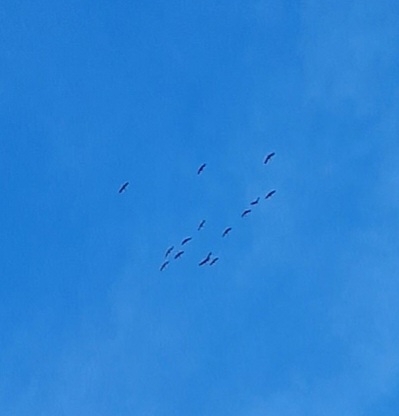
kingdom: Animalia
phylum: Chordata
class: Aves
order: Gruiformes
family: Gruidae
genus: Grus
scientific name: Grus grus
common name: Trane
